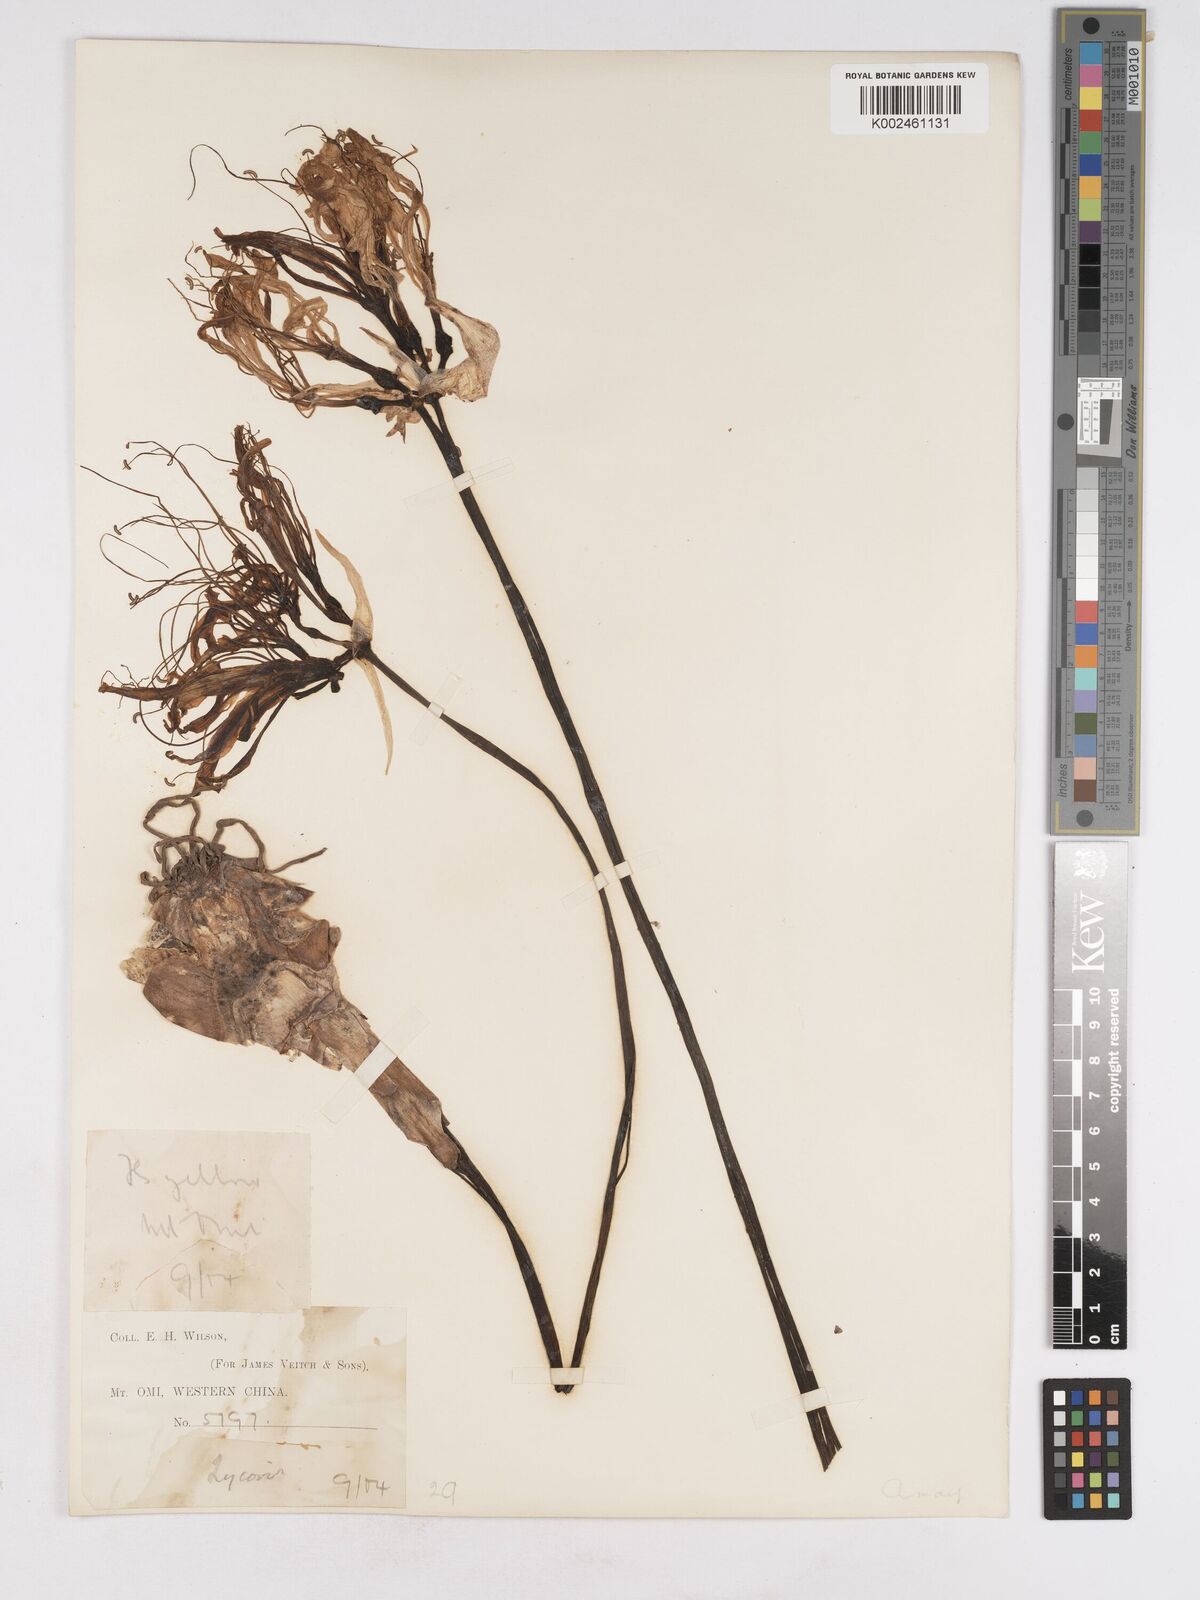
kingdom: Plantae
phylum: Tracheophyta
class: Liliopsida
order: Asparagales
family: Amaryllidaceae
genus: Lycoris
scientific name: Lycoris aurea
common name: Golden hurricane-lily
